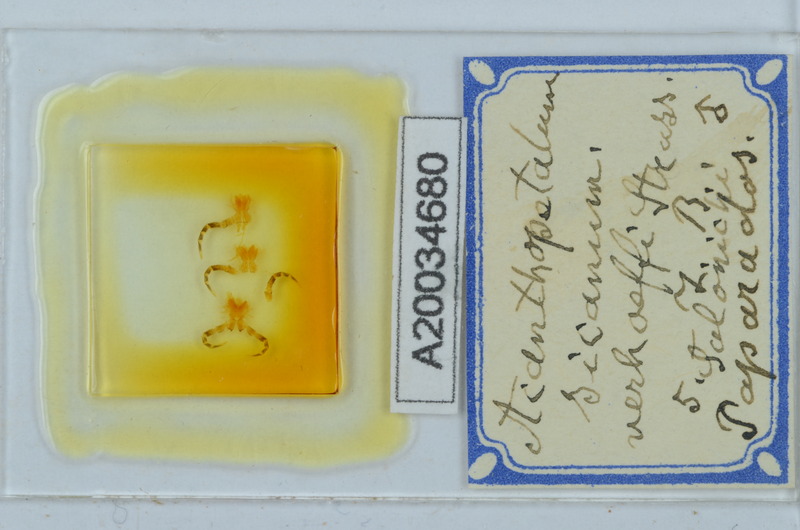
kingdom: Animalia
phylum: Arthropoda
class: Diplopoda
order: Callipodida
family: Schizopetalidae
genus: Acanthopetalum
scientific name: Acanthopetalum richii
